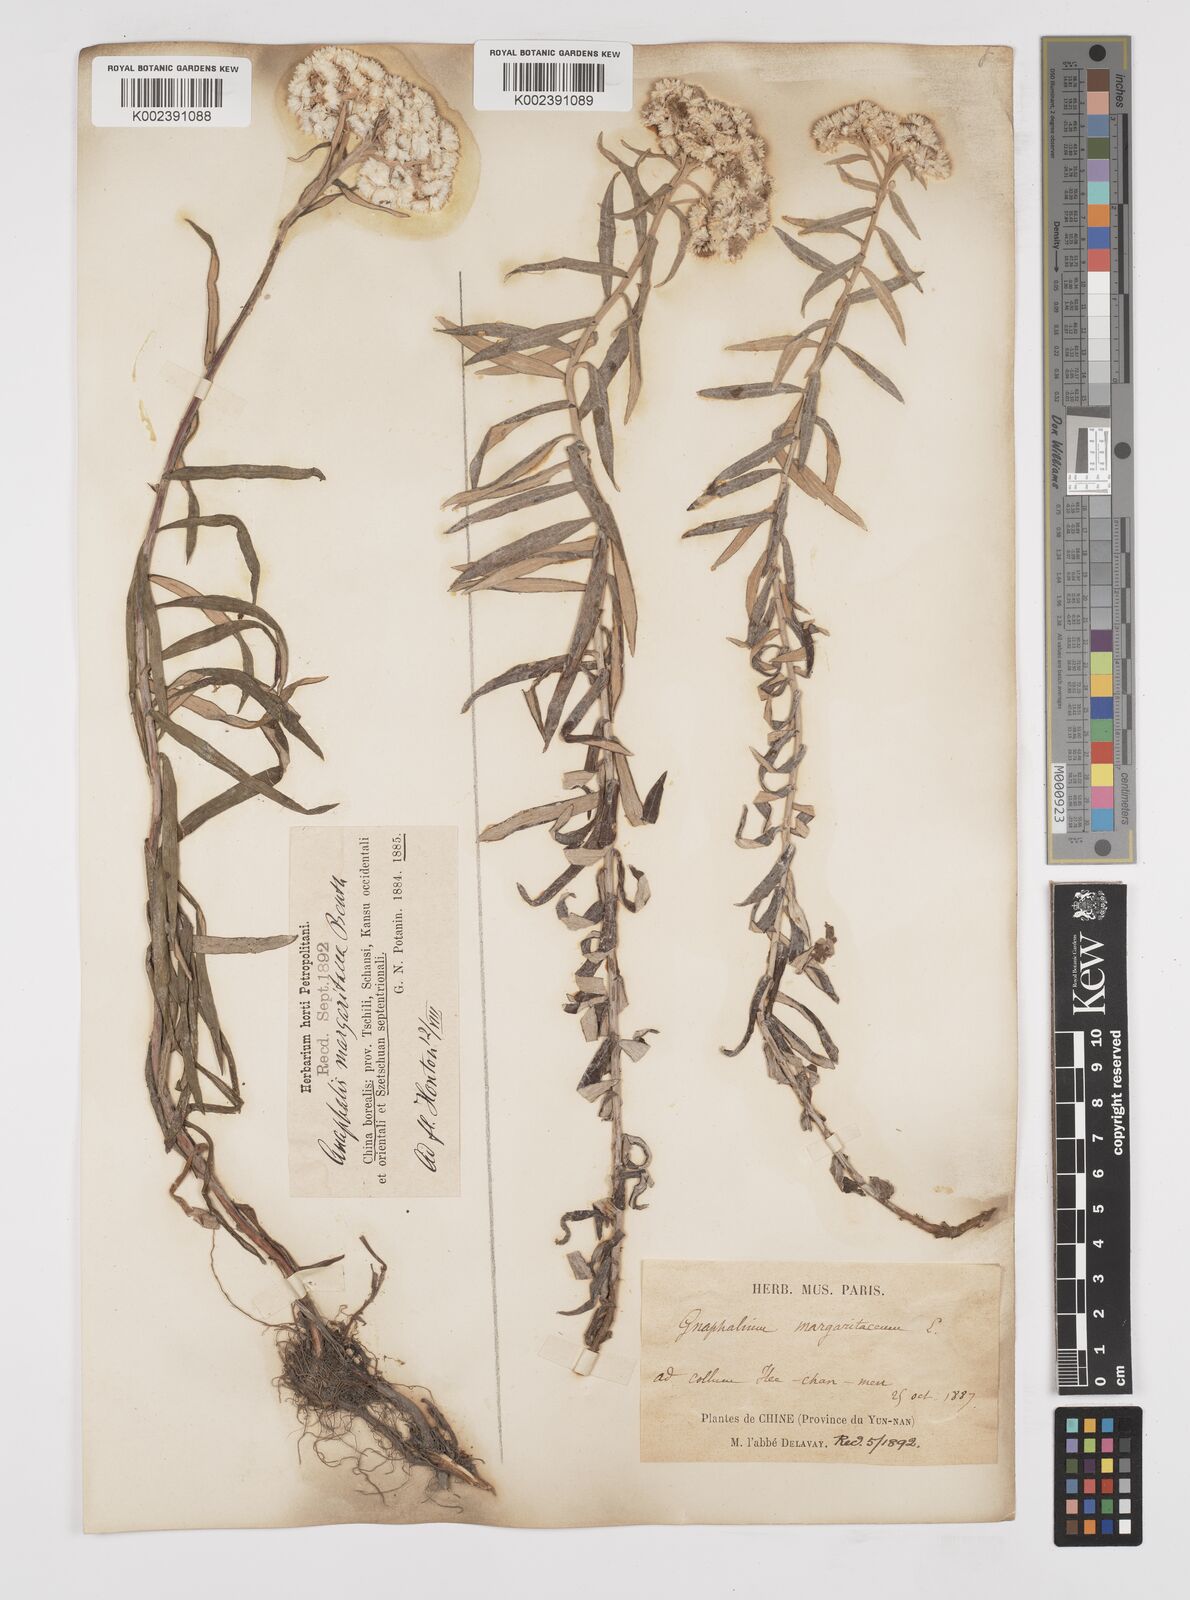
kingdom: Plantae
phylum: Tracheophyta
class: Magnoliopsida
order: Asterales
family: Asteraceae
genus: Anaphalis
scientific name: Anaphalis margaritacea
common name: Pearly everlasting
